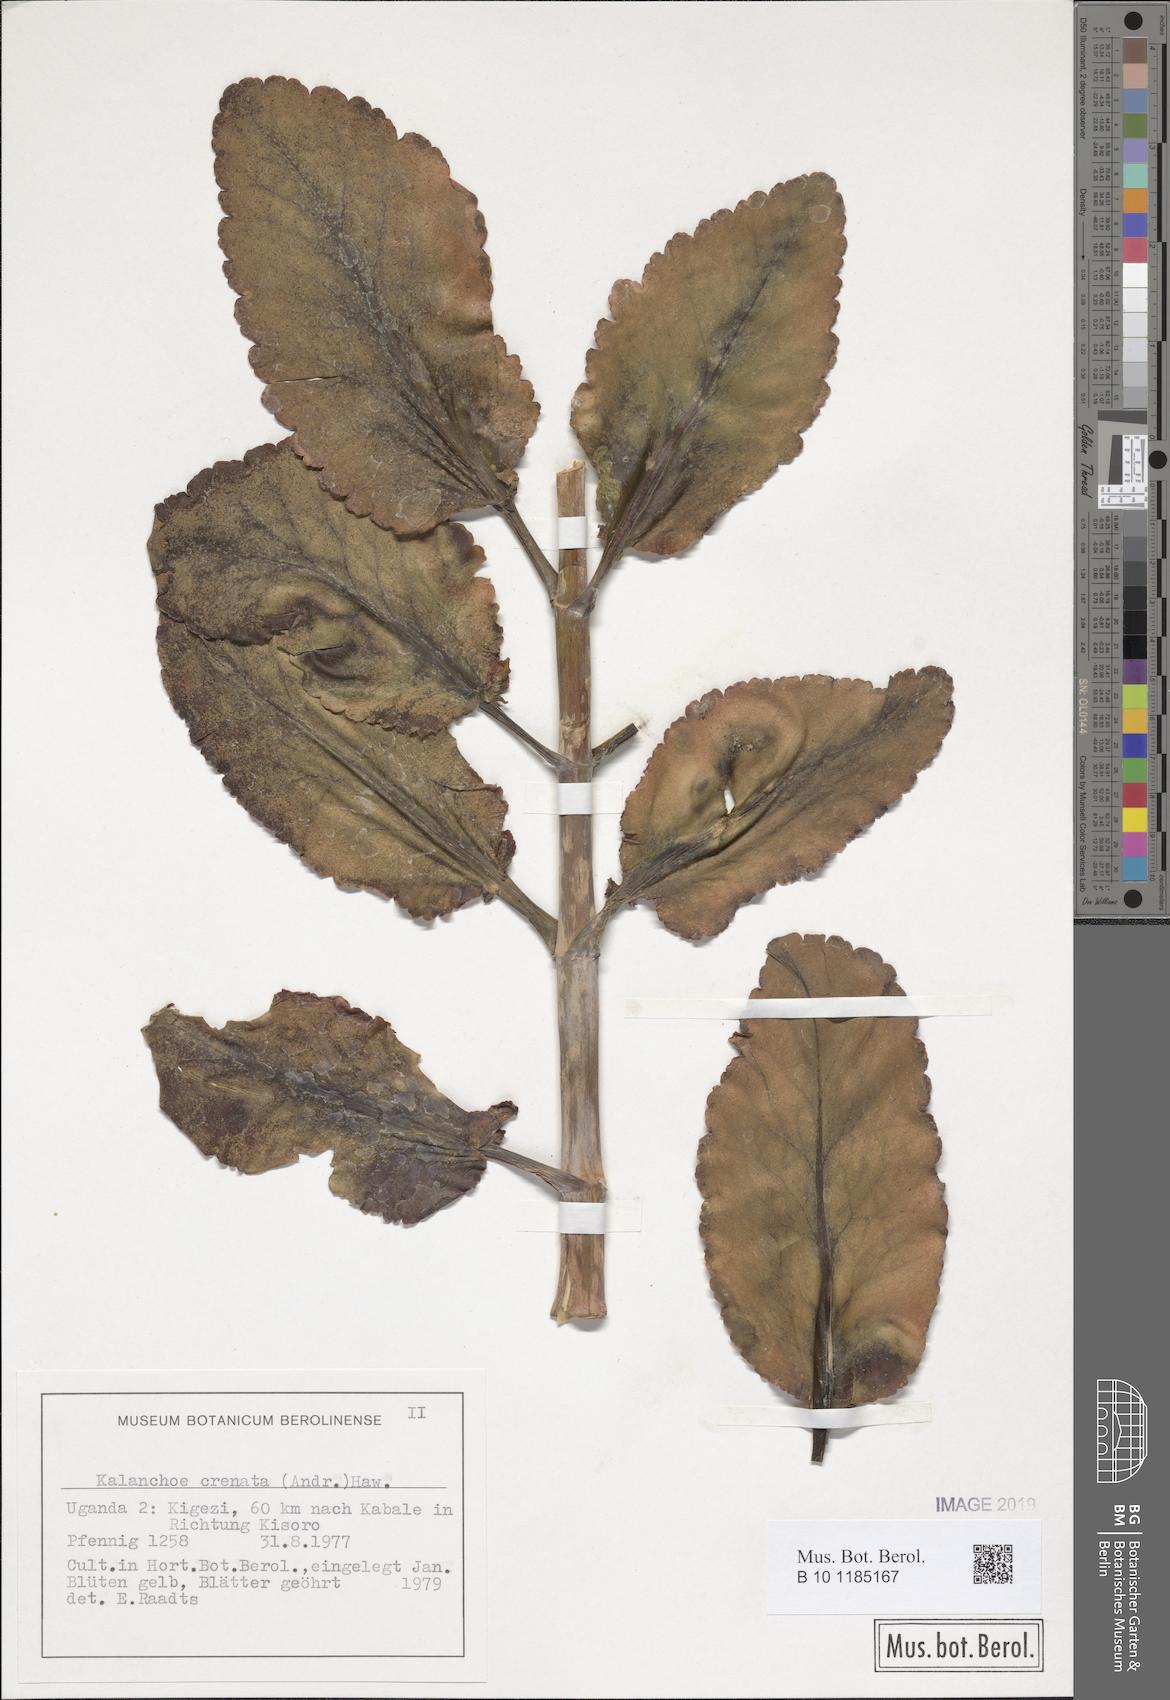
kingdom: Plantae
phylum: Tracheophyta
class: Magnoliopsida
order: Saxifragales
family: Crassulaceae
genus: Kalanchoe
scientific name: Kalanchoe crenata
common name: Neverdie
